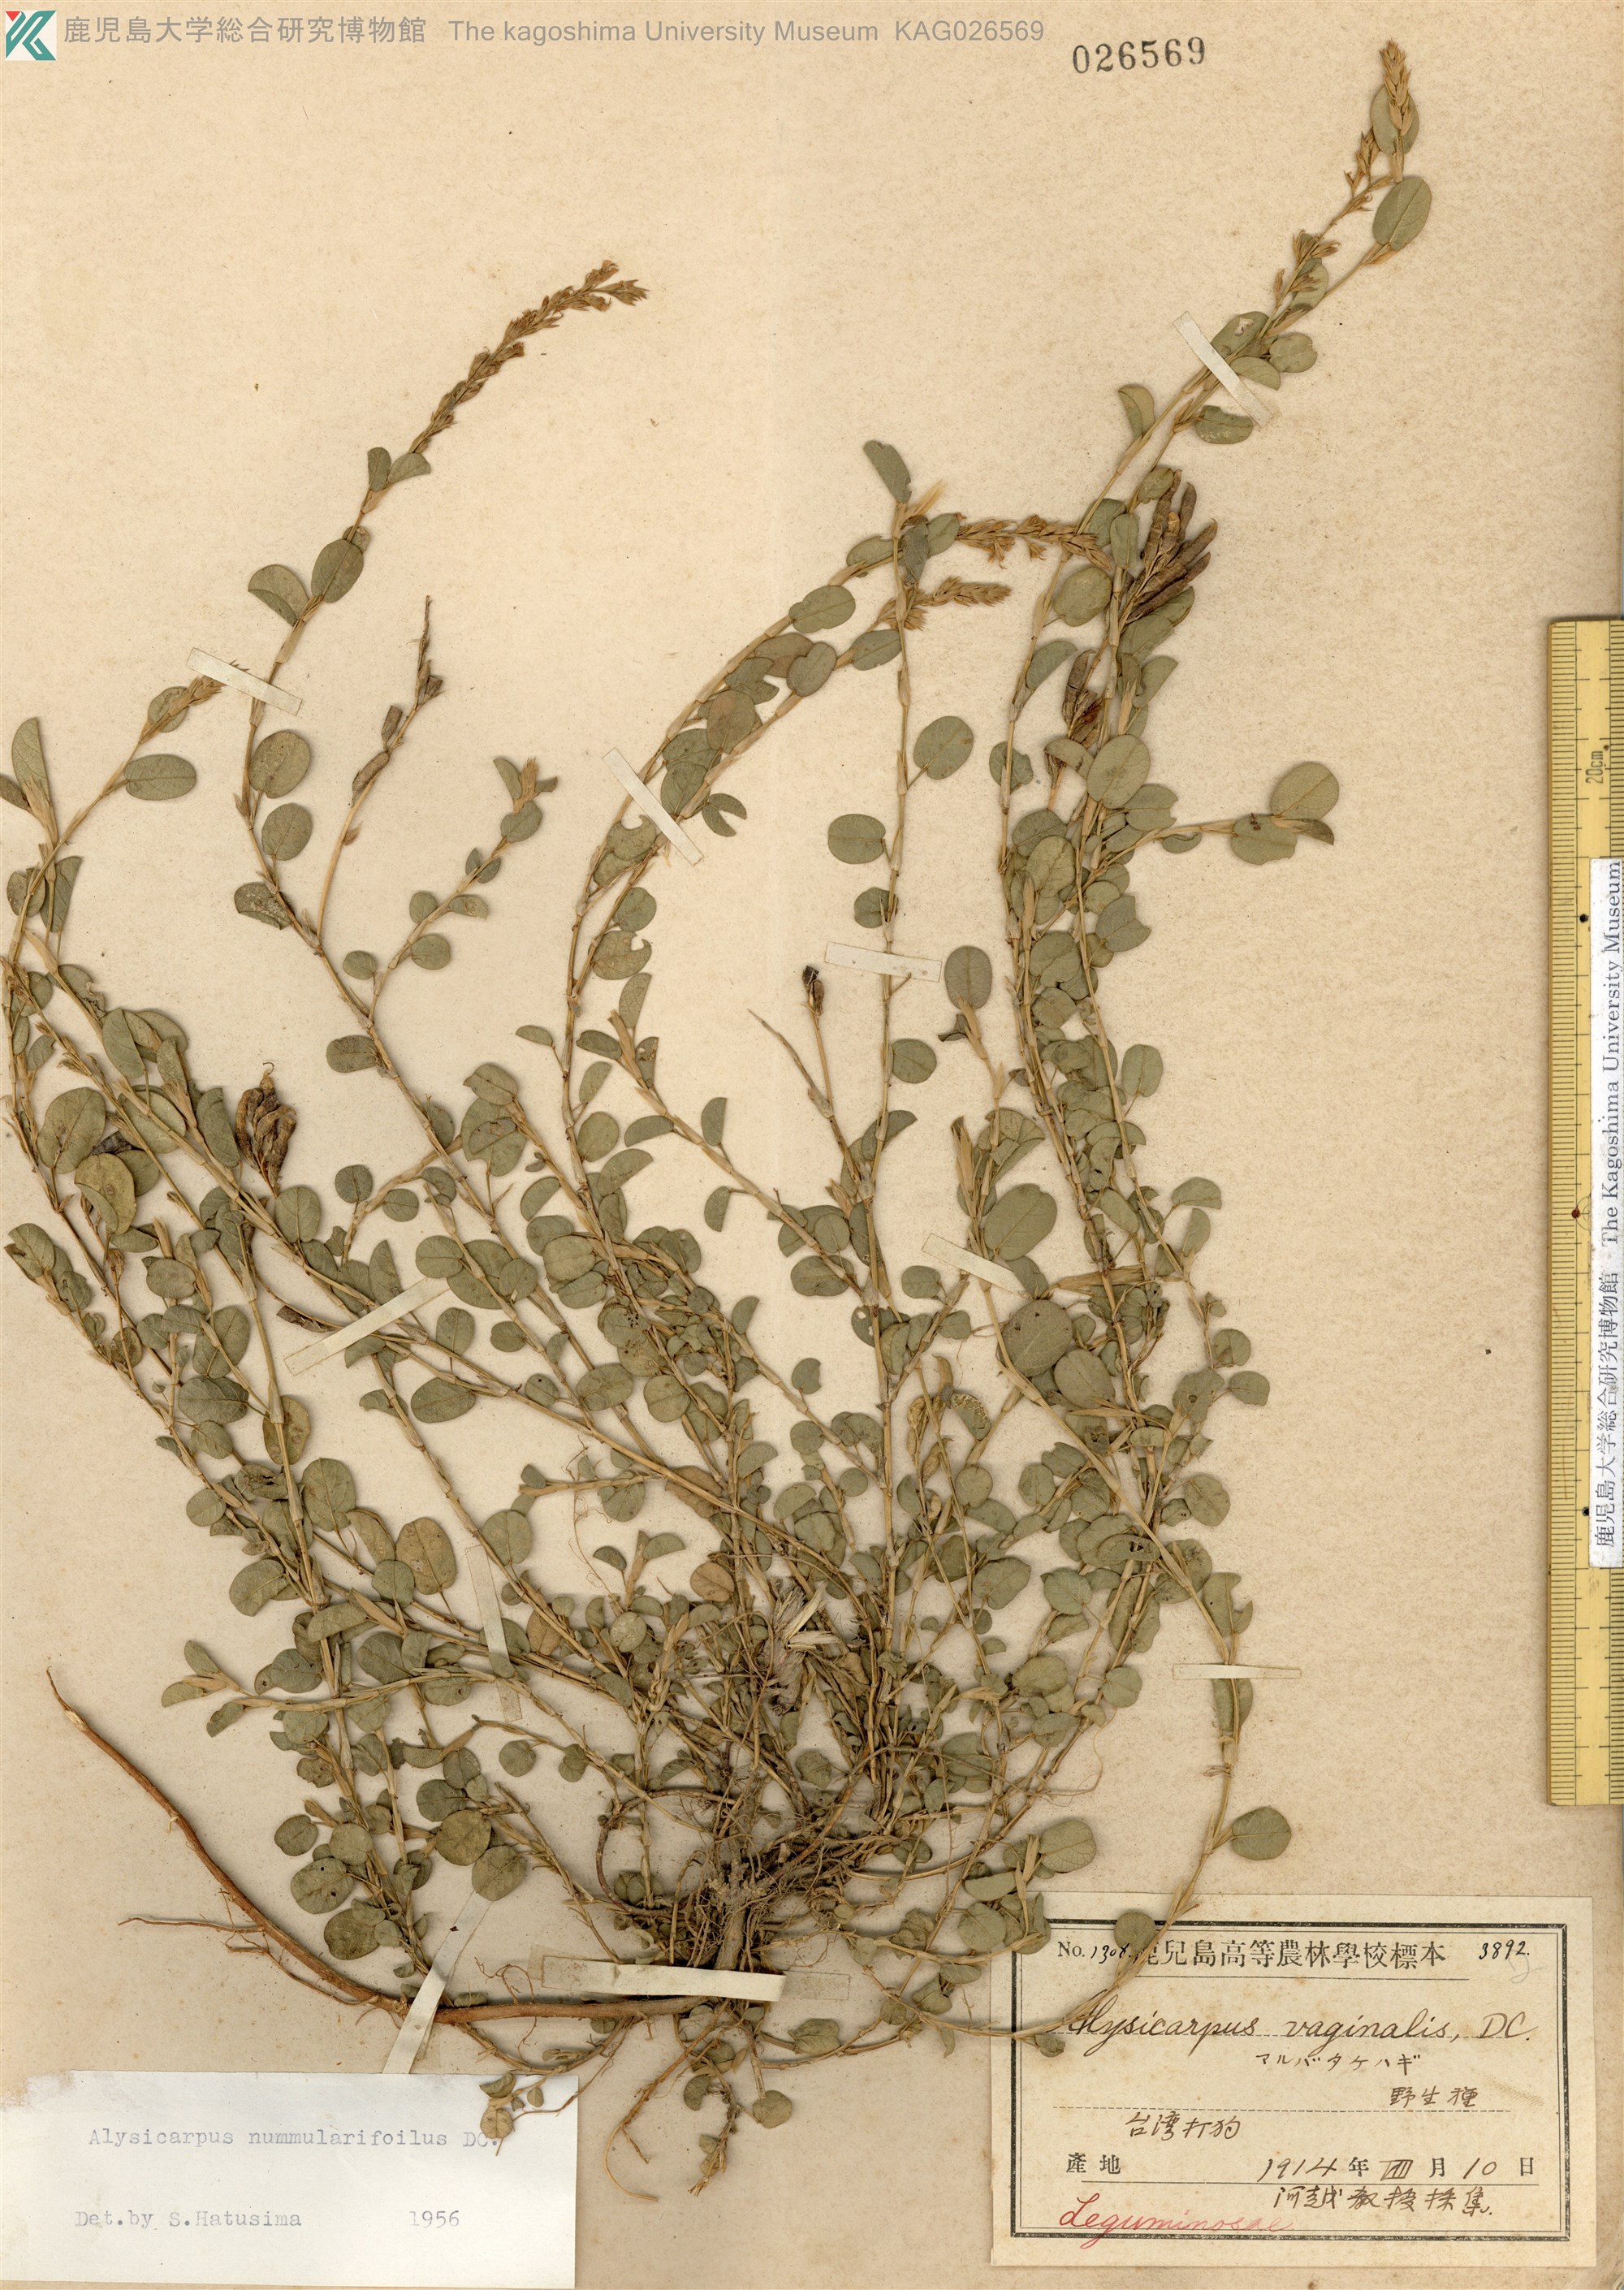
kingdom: Plantae
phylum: Tracheophyta
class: Magnoliopsida
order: Fabales
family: Fabaceae
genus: Alysicarpus
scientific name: Alysicarpus vaginalis
